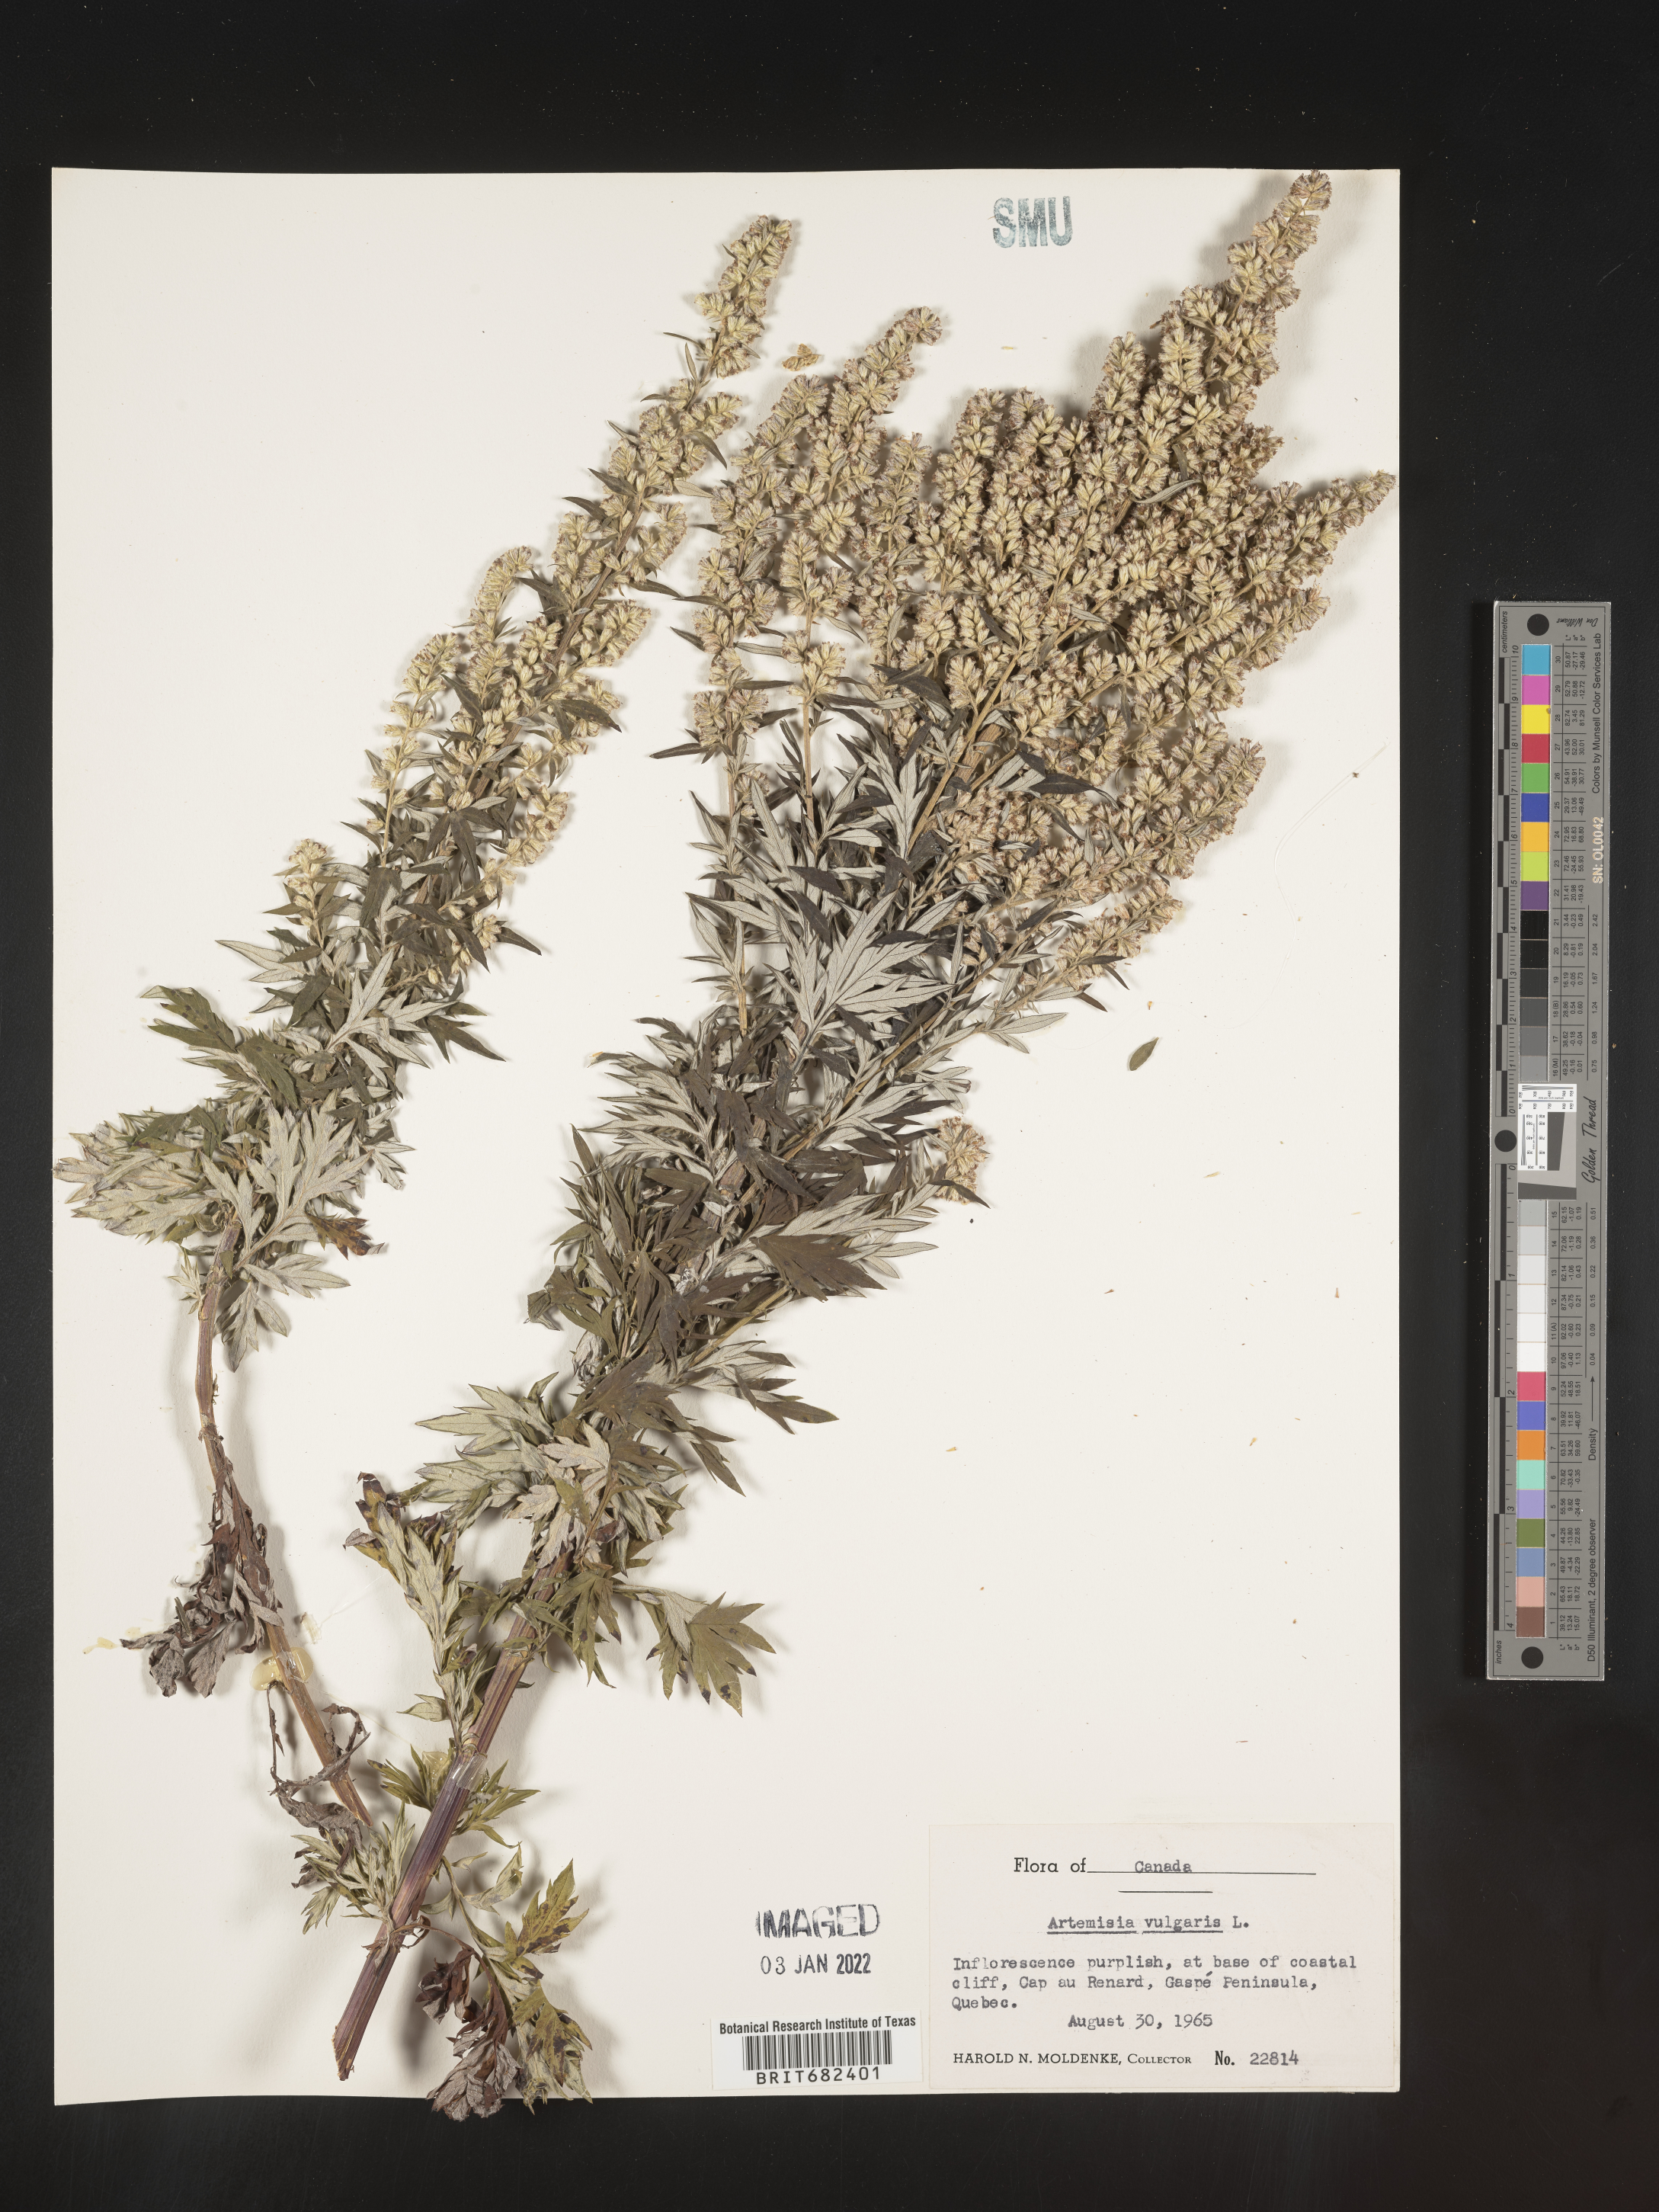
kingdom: Plantae
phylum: Tracheophyta
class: Magnoliopsida
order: Asterales
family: Asteraceae
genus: Artemisia
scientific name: Artemisia vulgaris
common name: Mugwort
